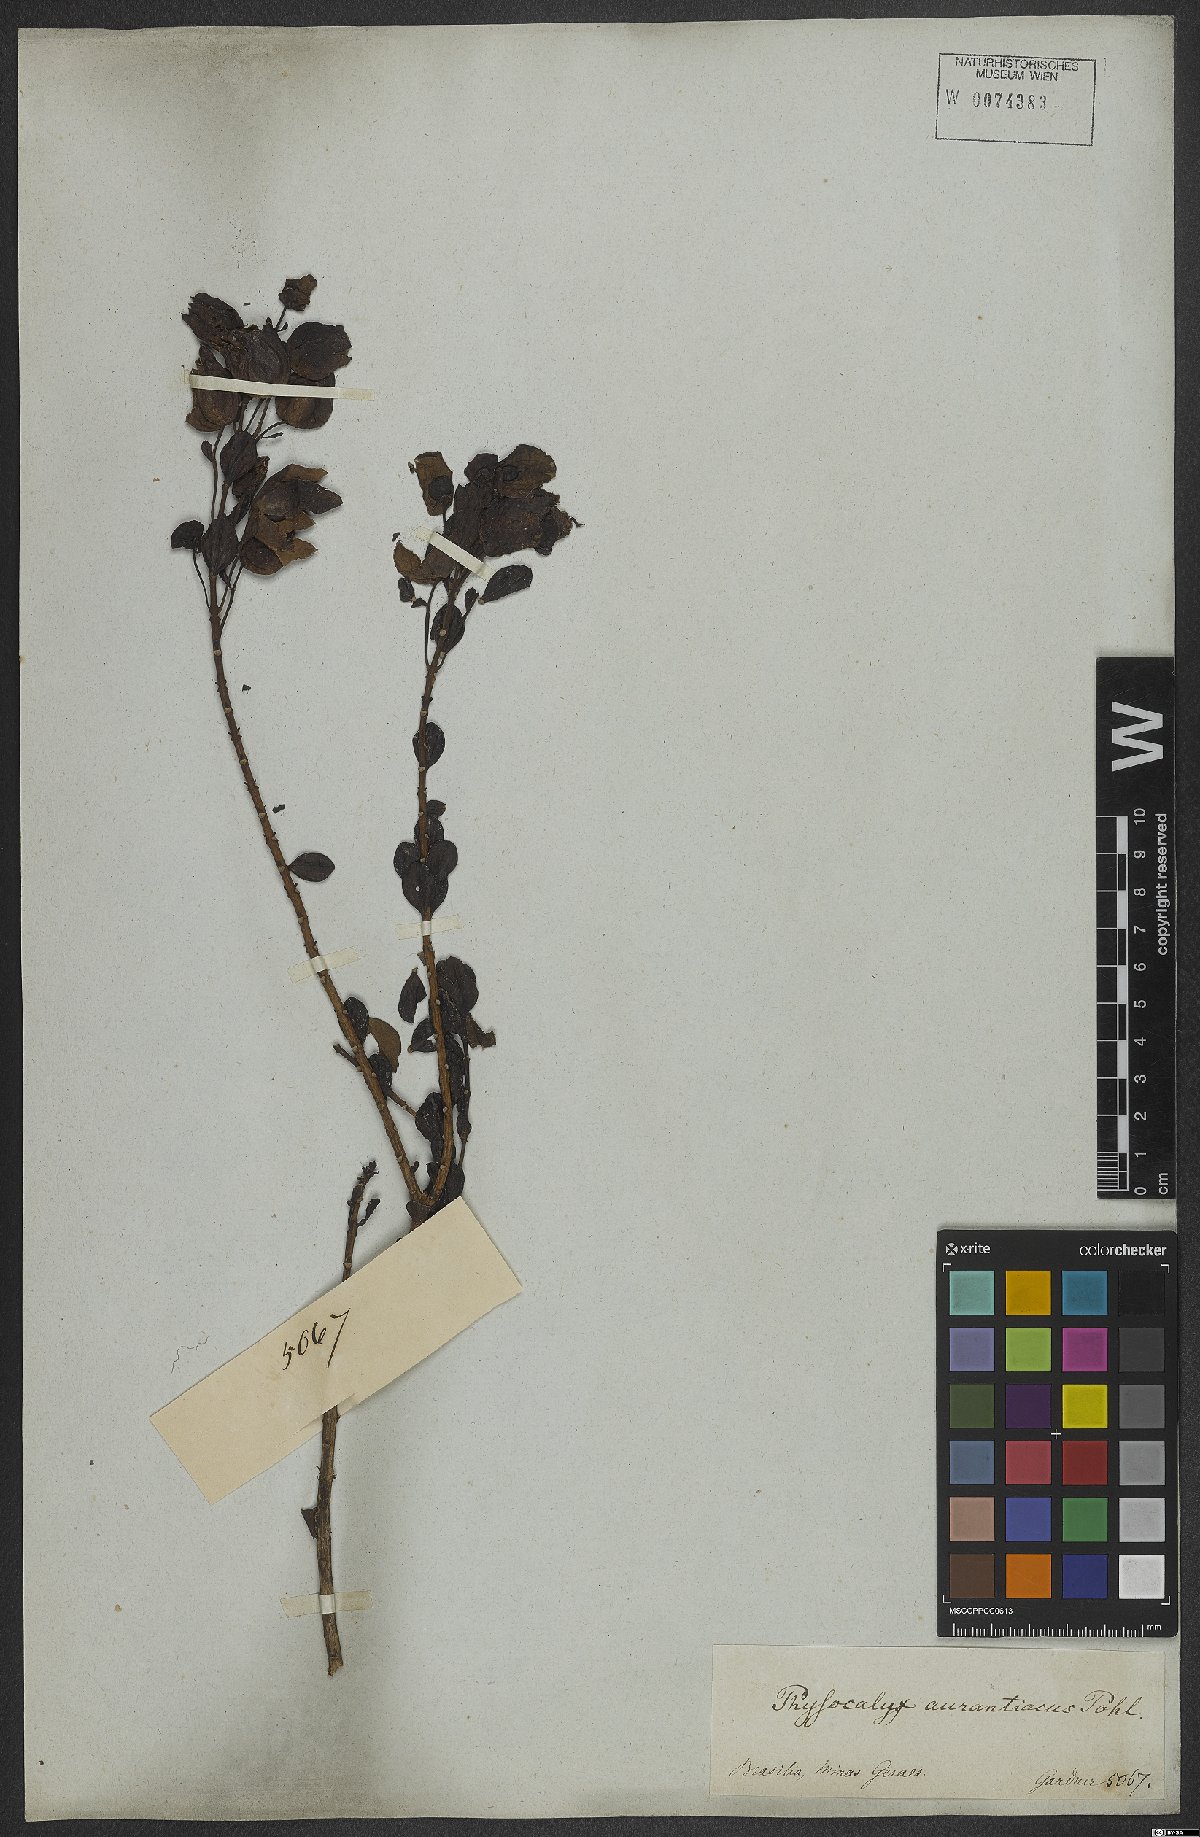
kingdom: Plantae
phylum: Tracheophyta
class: Magnoliopsida
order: Lamiales
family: Orobanchaceae
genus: Physocalyx
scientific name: Physocalyx aurantiacus
